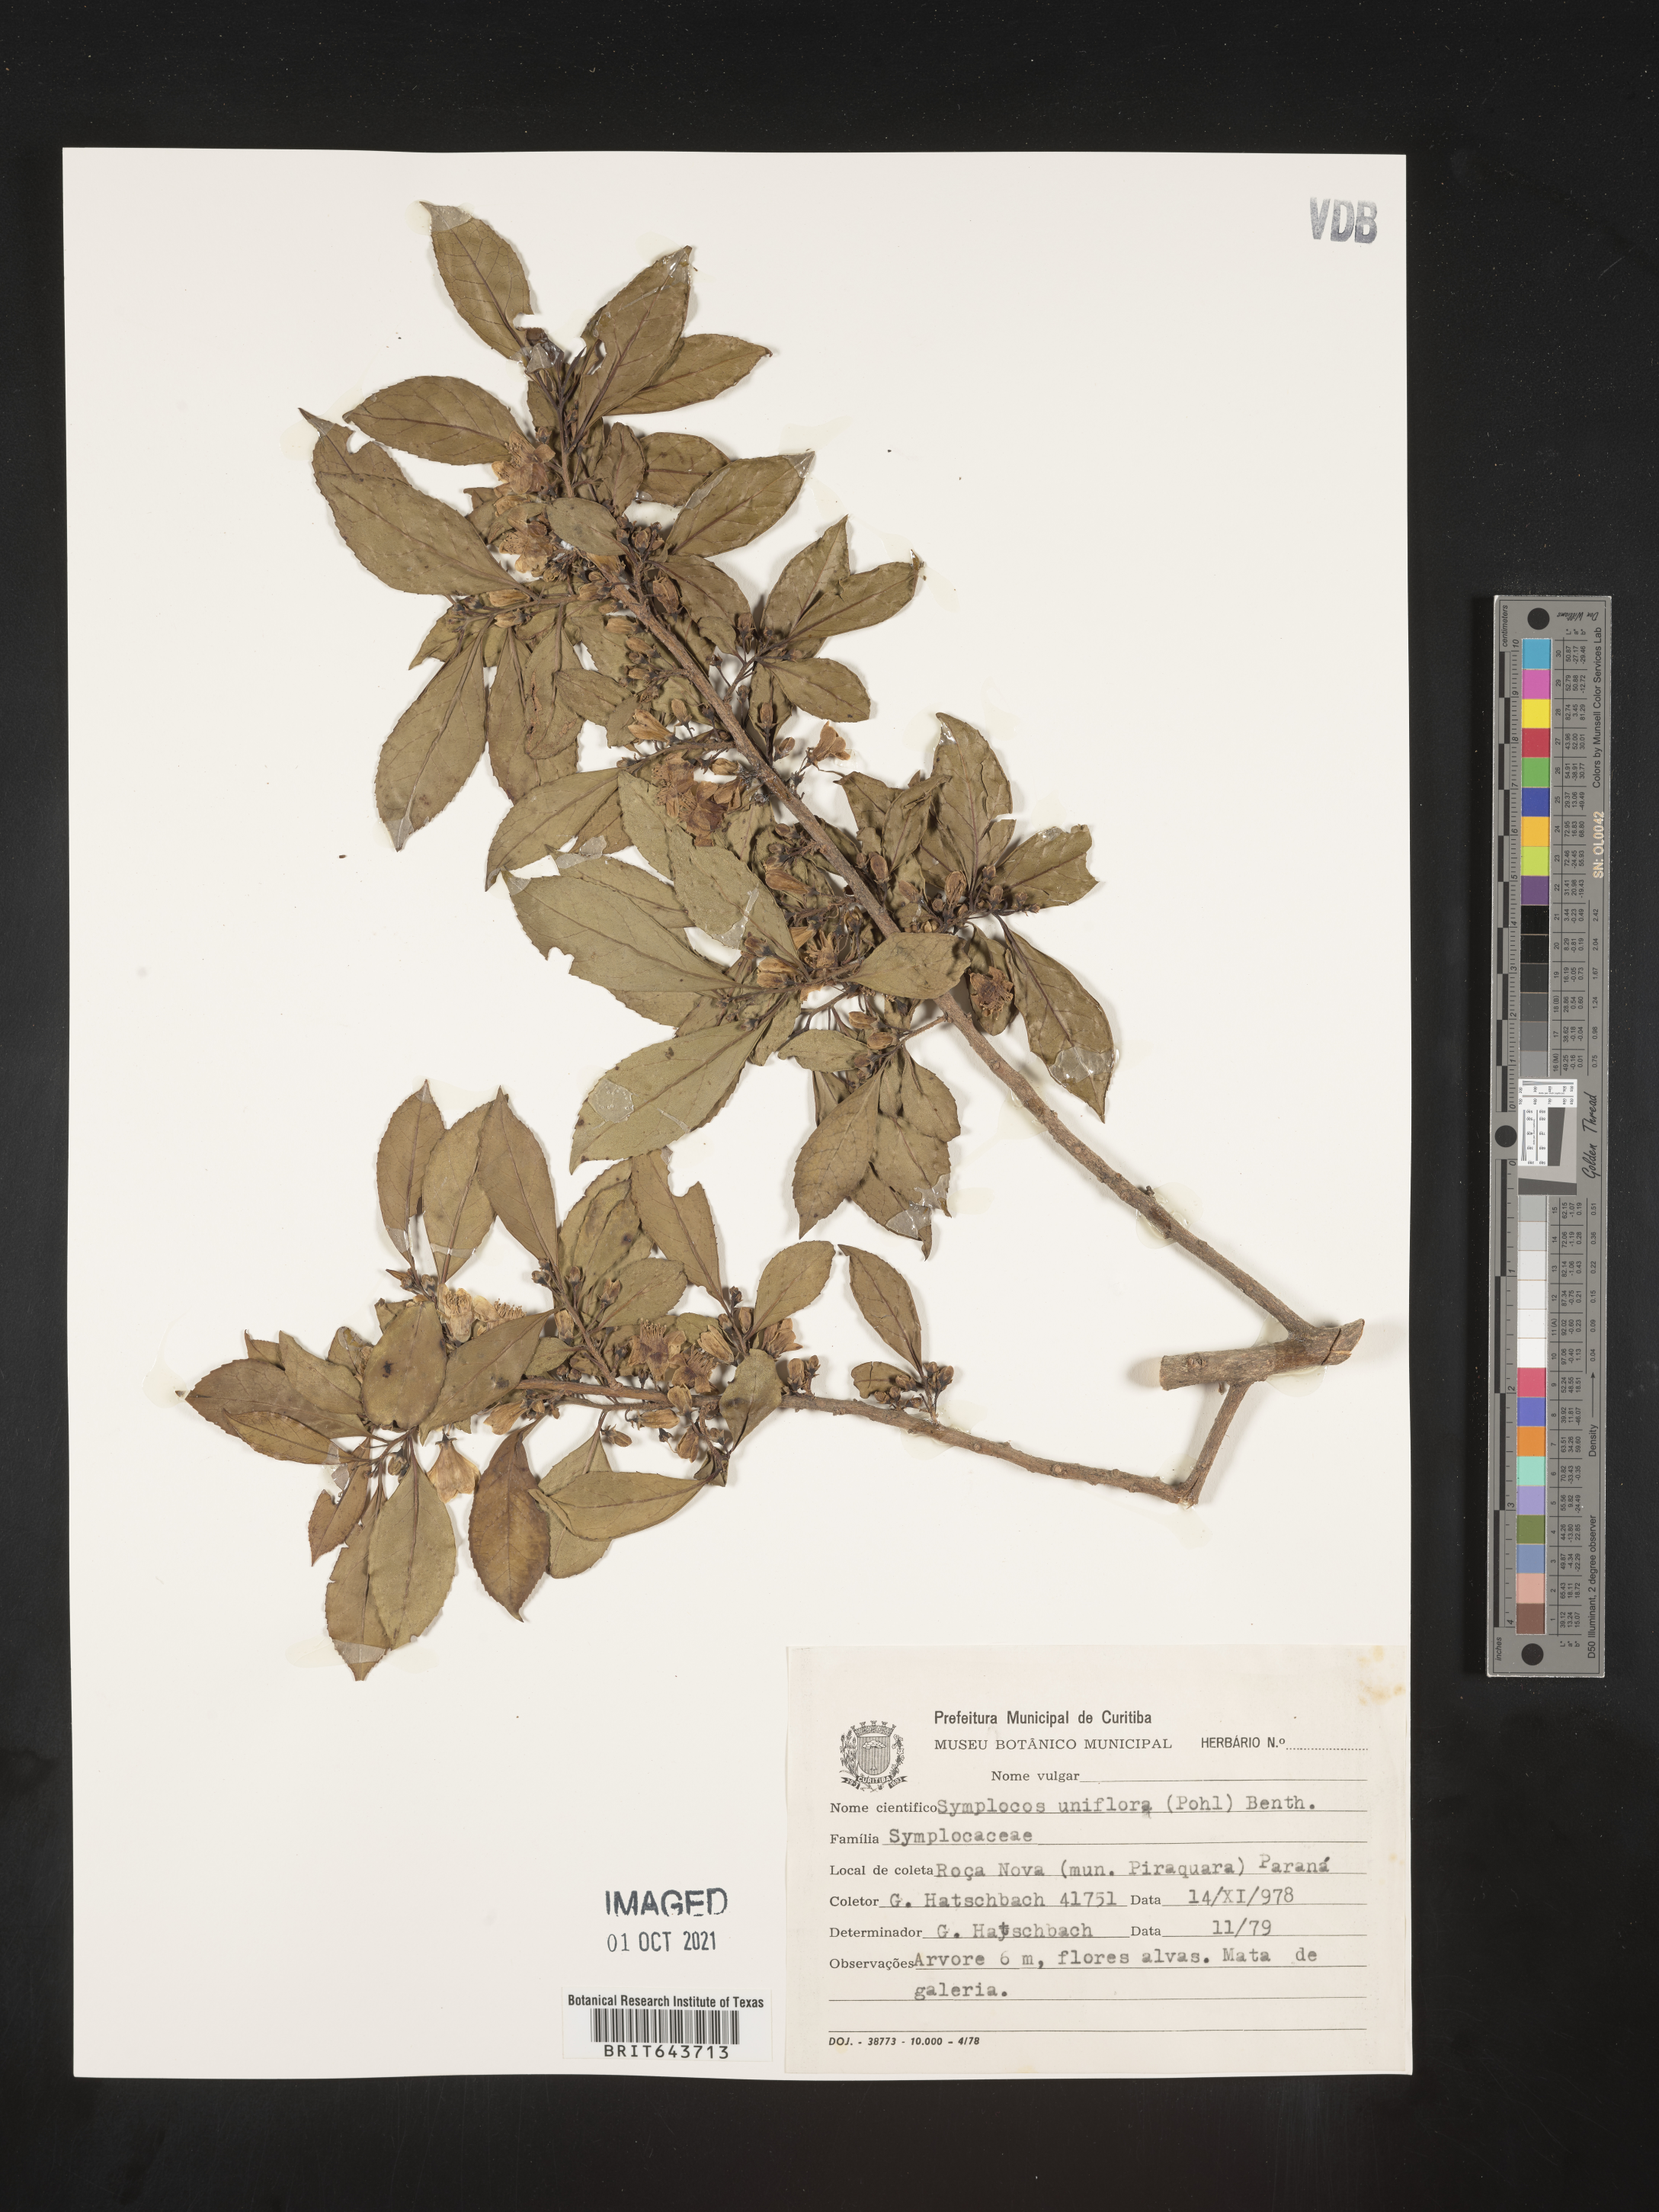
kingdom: Plantae
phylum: Tracheophyta
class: Magnoliopsida
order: Ericales
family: Symplocaceae
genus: Symplocos
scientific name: Symplocos
